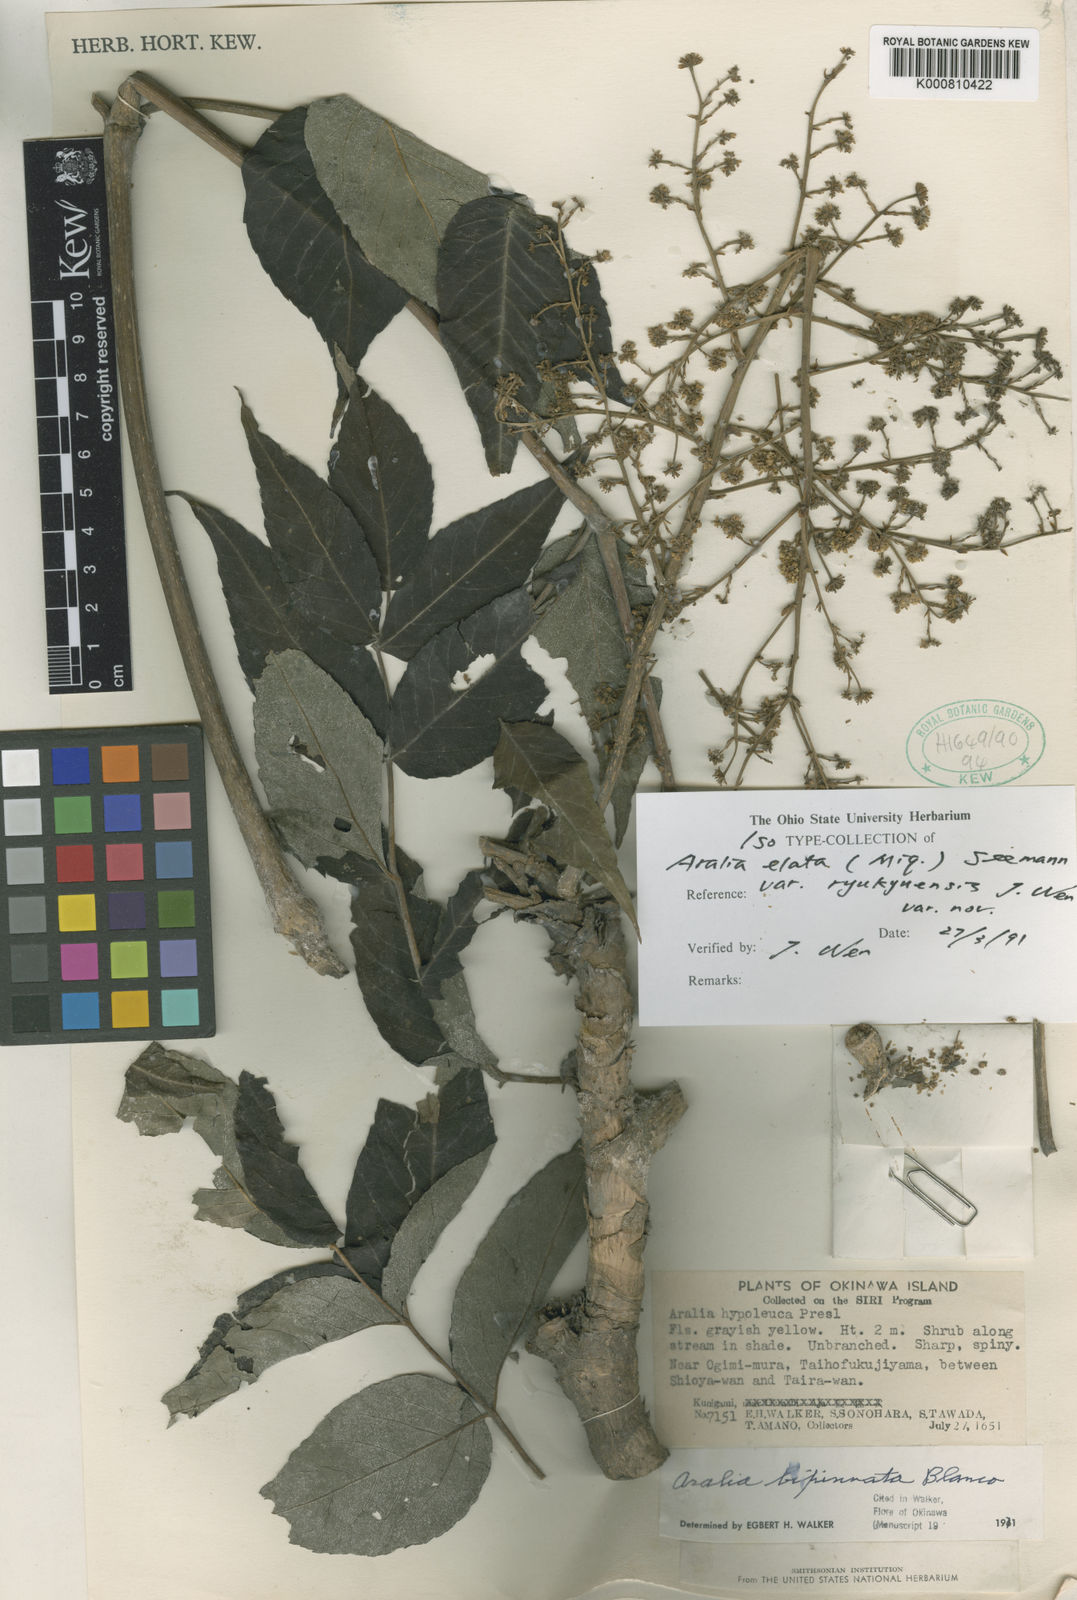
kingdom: Plantae
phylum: Tracheophyta
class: Magnoliopsida
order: Apiales
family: Araliaceae
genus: Aralia
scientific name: Aralia elata
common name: Japanese angelica-tree
